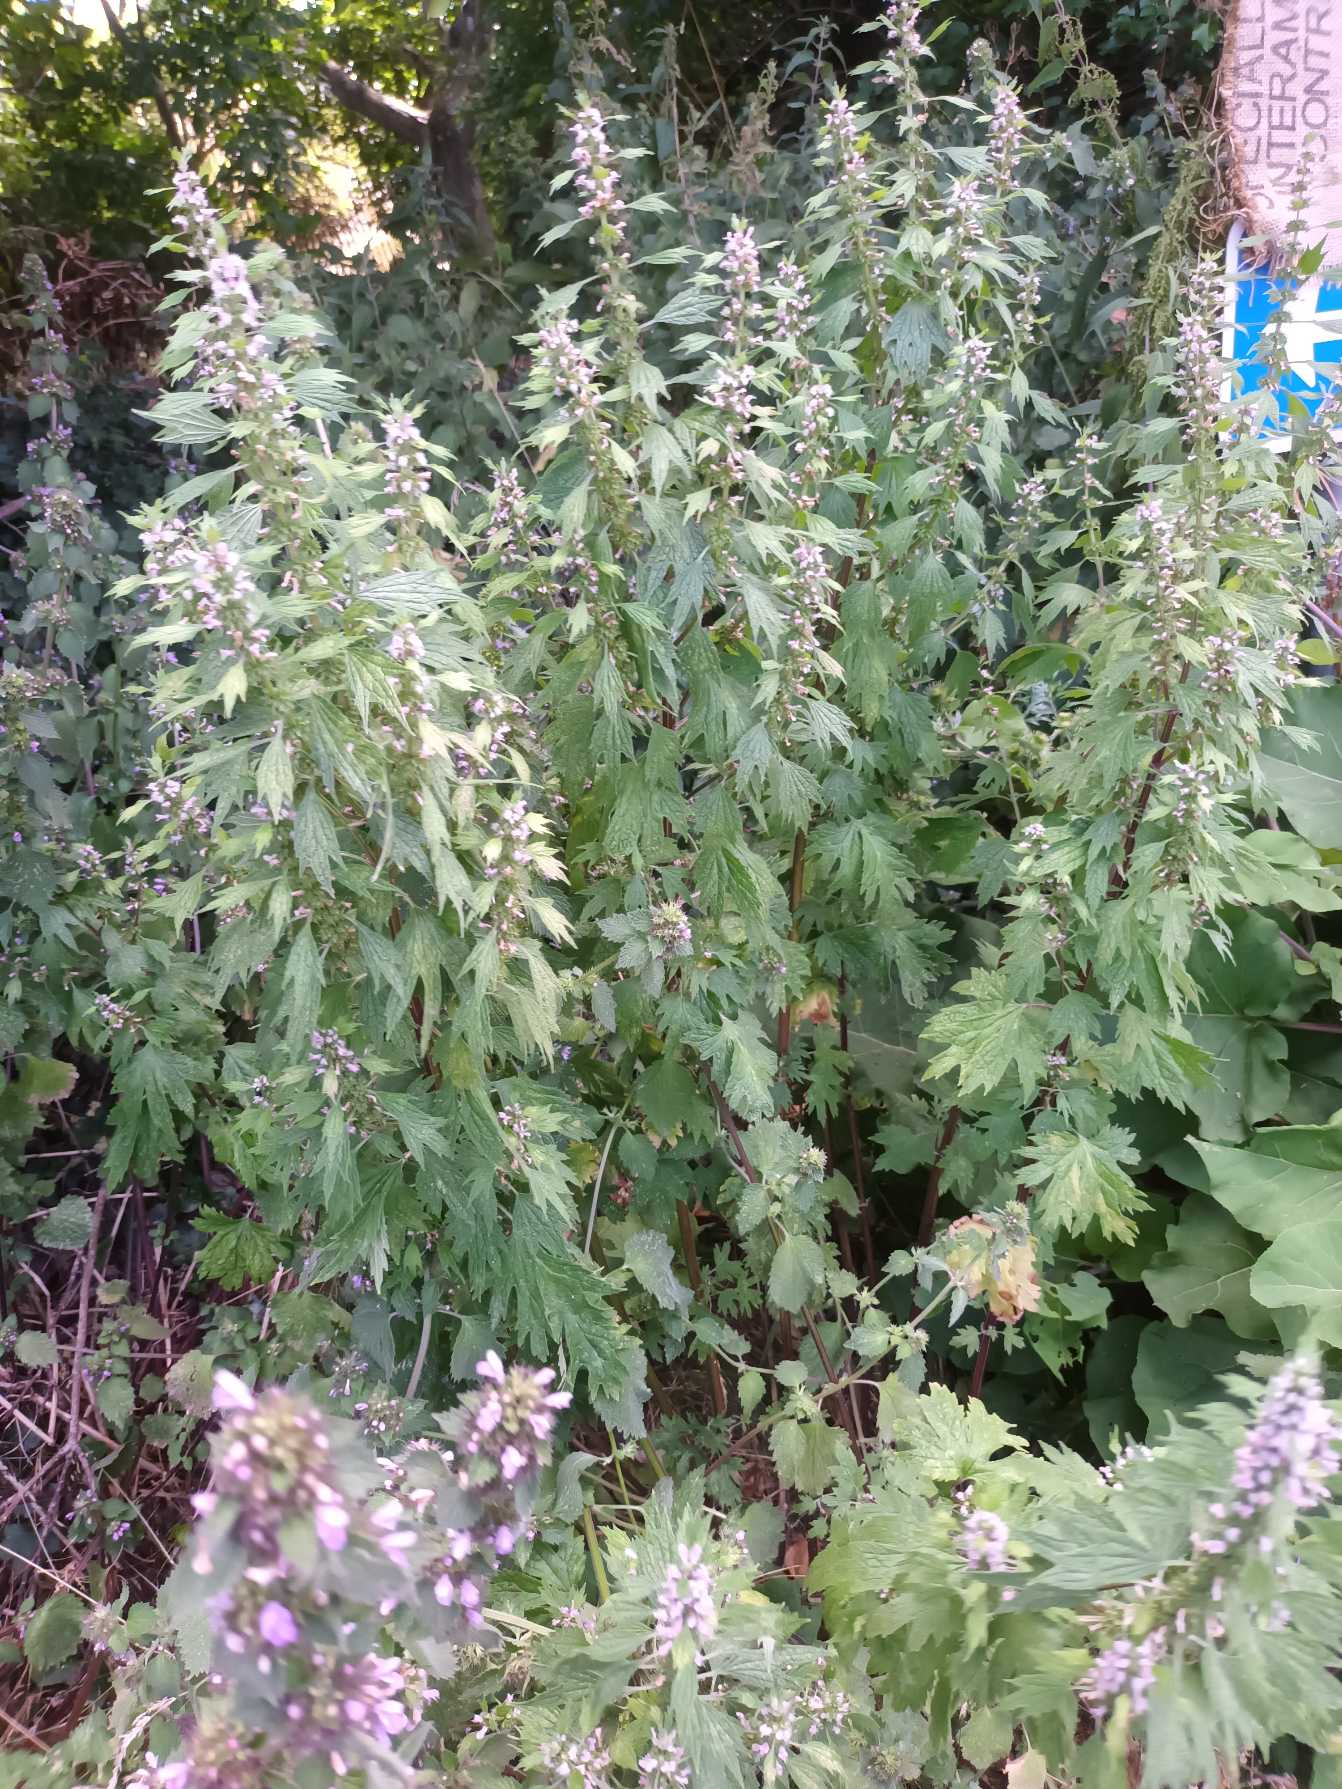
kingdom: Plantae
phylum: Tracheophyta
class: Magnoliopsida
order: Lamiales
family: Lamiaceae
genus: Leonurus
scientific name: Leonurus cardiaca
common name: Hjertespand
